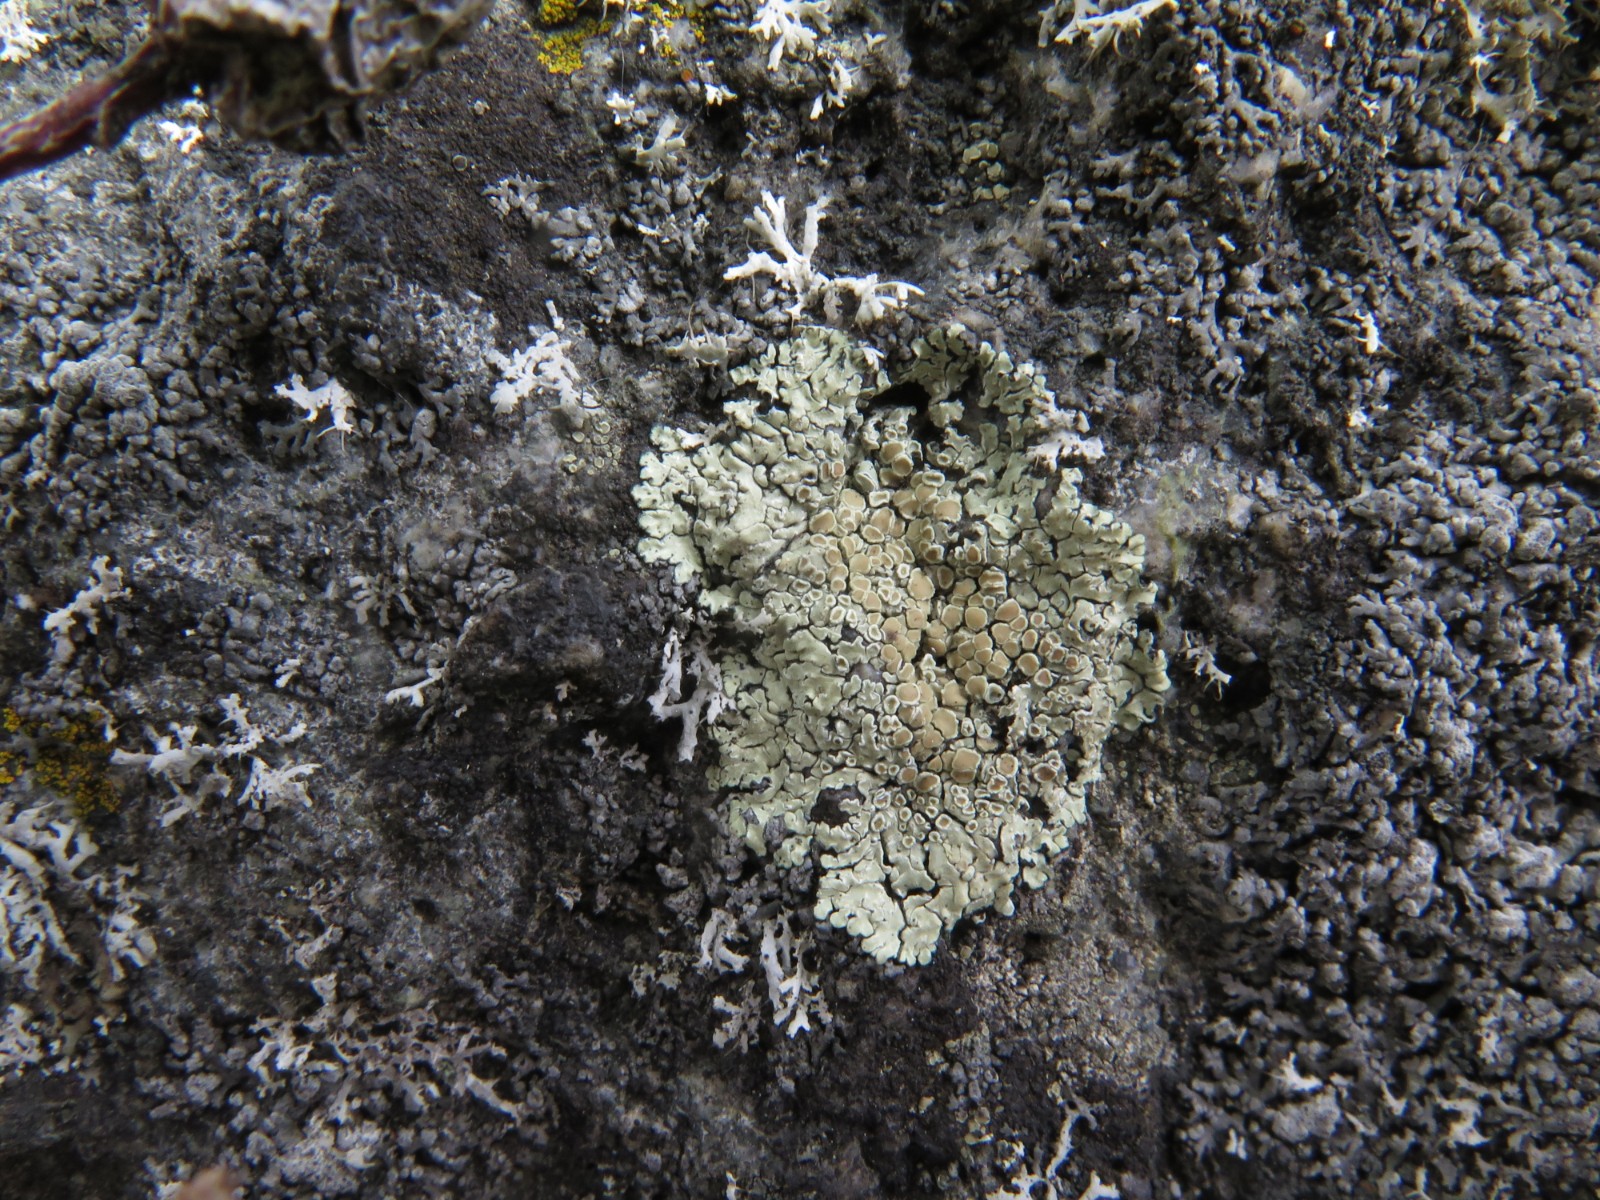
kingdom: Fungi
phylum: Ascomycota
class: Lecanoromycetes
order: Lecanorales
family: Lecanoraceae
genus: Protoparmeliopsis
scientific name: Protoparmeliopsis muralis
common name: randfliget kantskivelav
